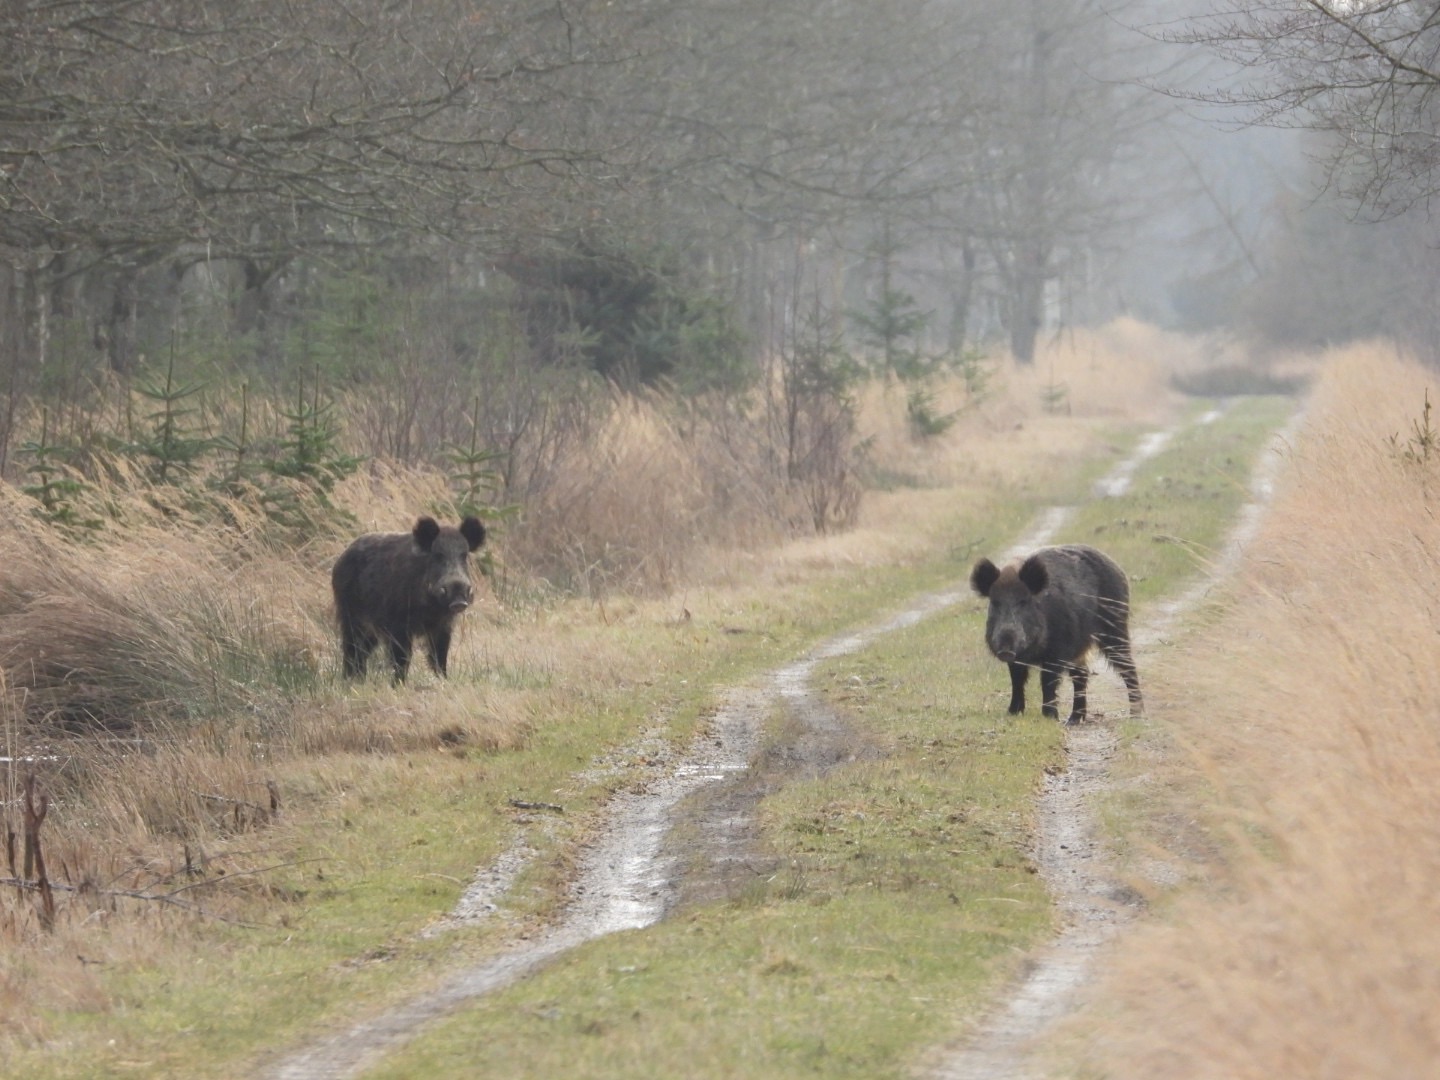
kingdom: Animalia
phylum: Chordata
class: Mammalia
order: Artiodactyla
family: Suidae
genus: Sus
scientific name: Sus scrofa
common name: Vildsvin
